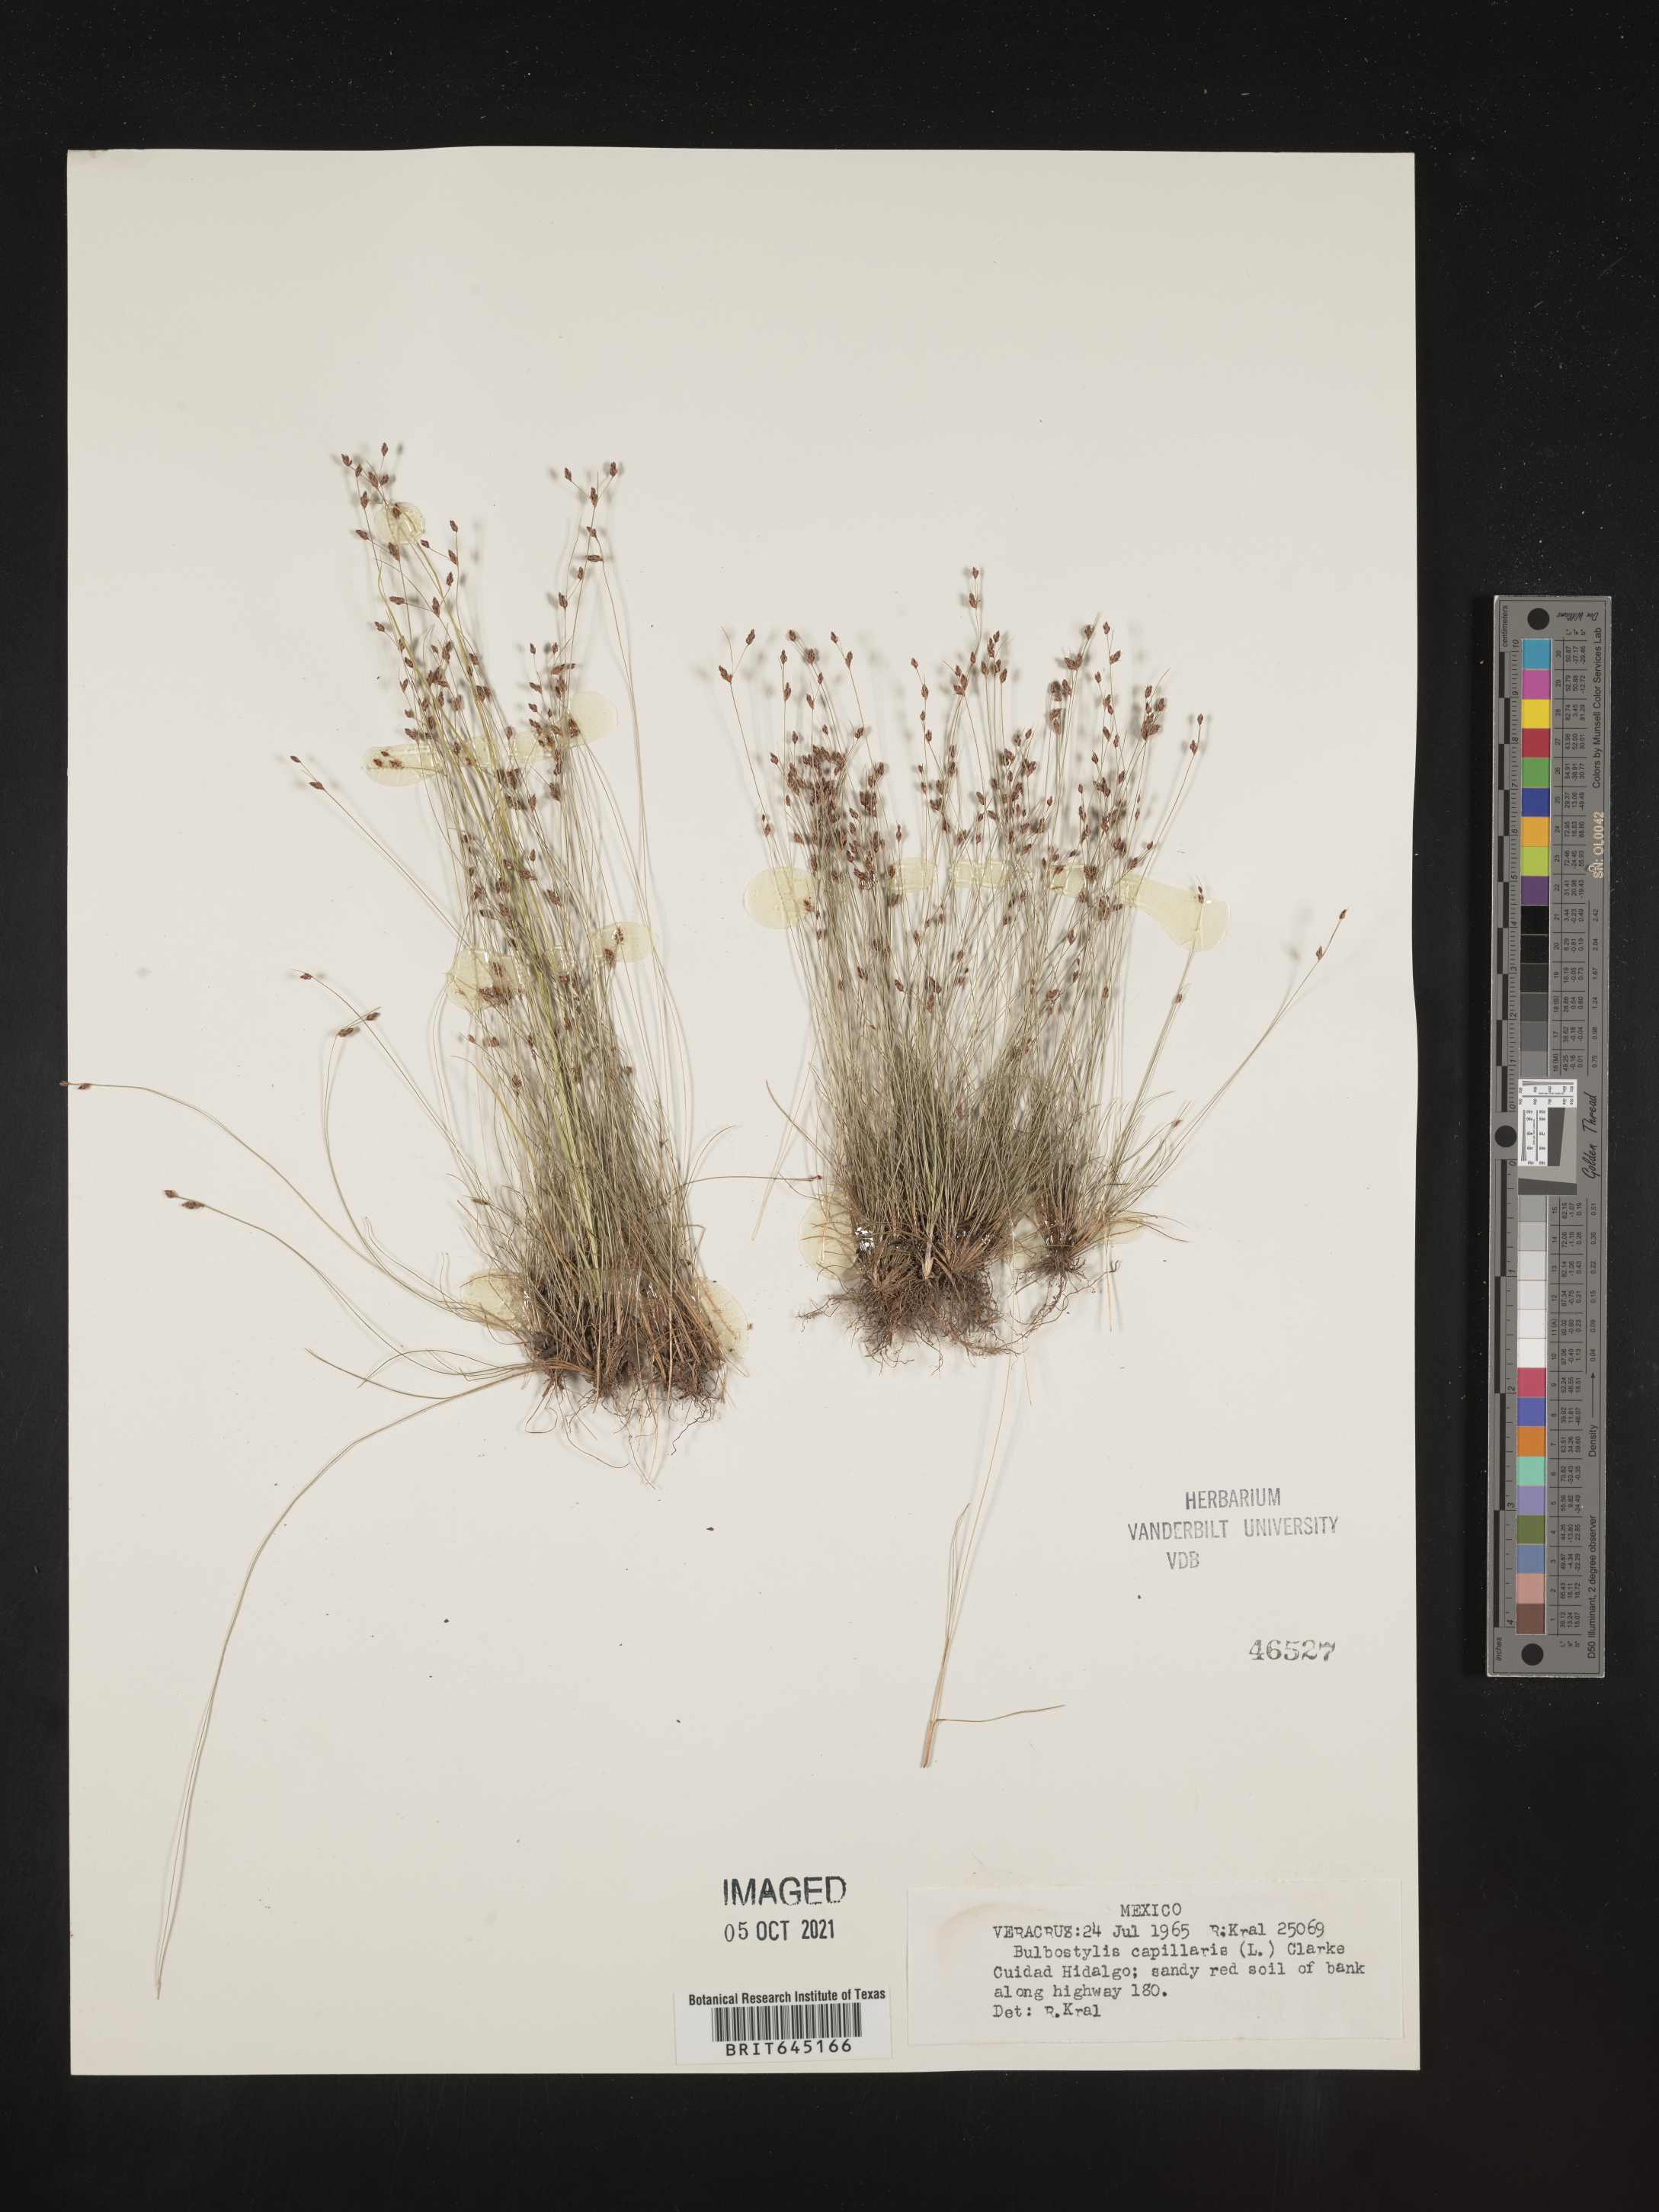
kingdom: Plantae
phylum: Tracheophyta
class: Liliopsida
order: Poales
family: Cyperaceae
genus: Bulbostylis
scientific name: Bulbostylis capillaris
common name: Densetuft hairsedge
